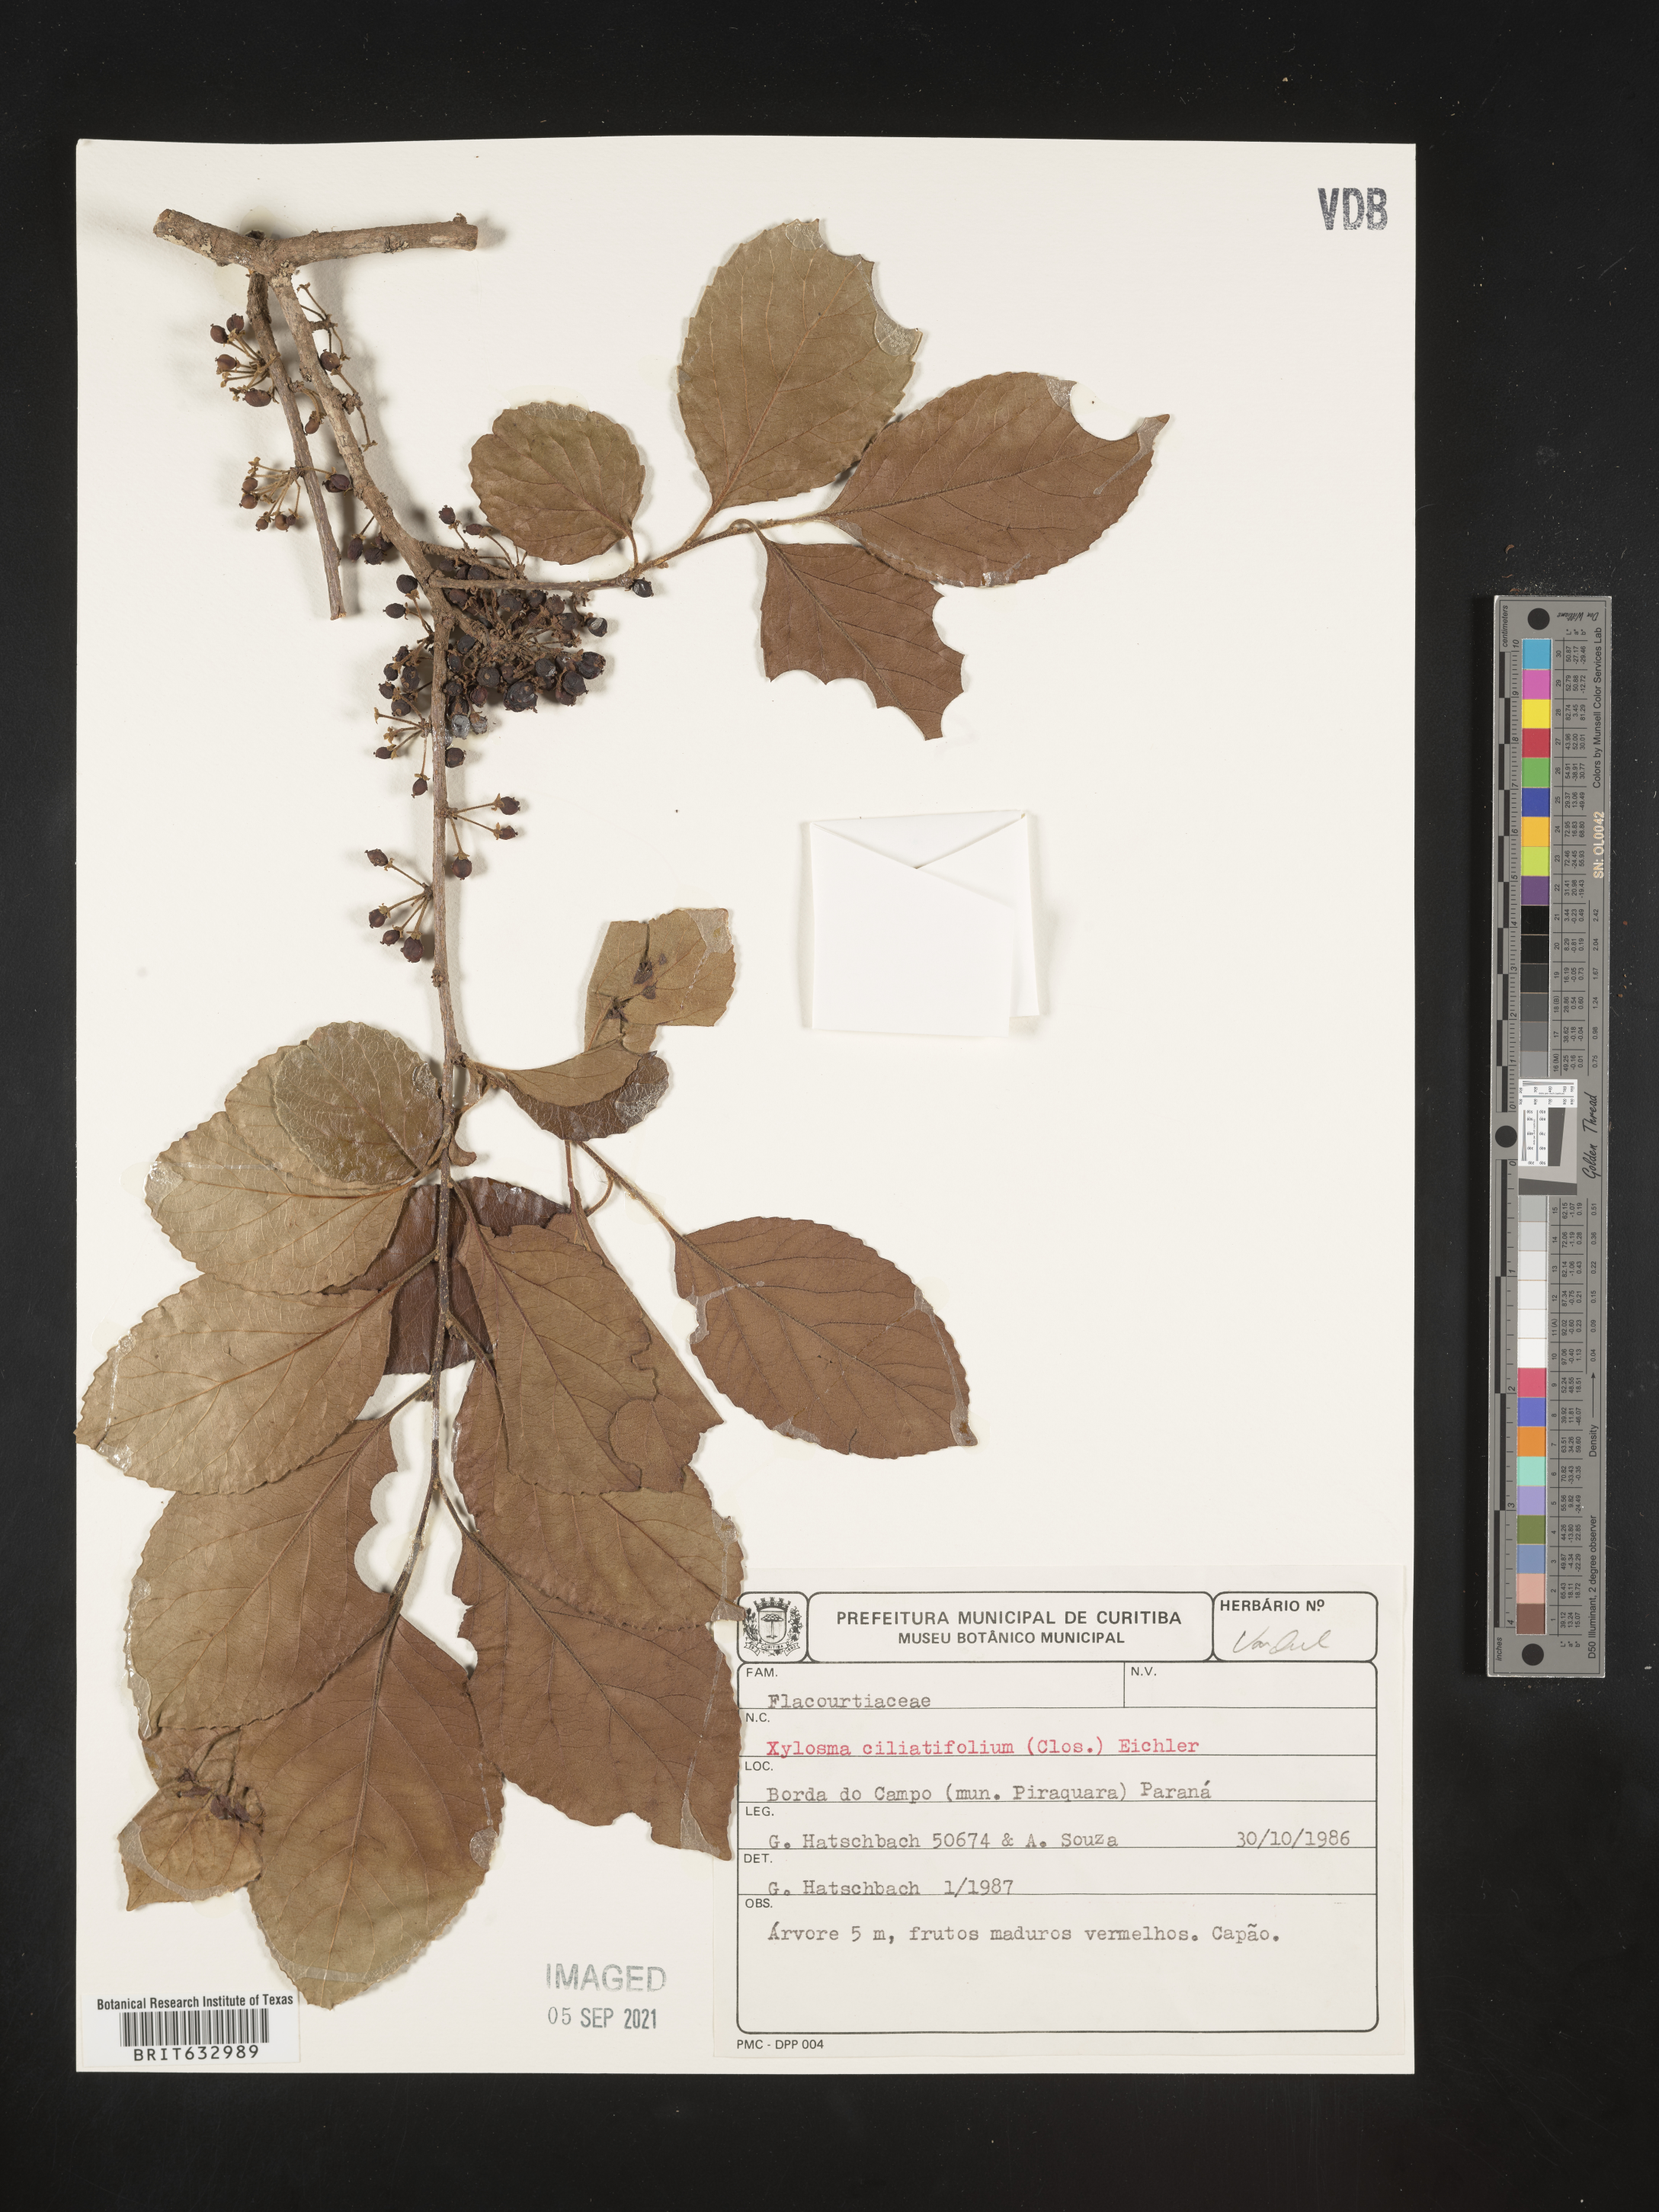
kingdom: Plantae
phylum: Tracheophyta
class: Magnoliopsida
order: Malpighiales
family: Salicaceae
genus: Xylosma
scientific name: Xylosma
